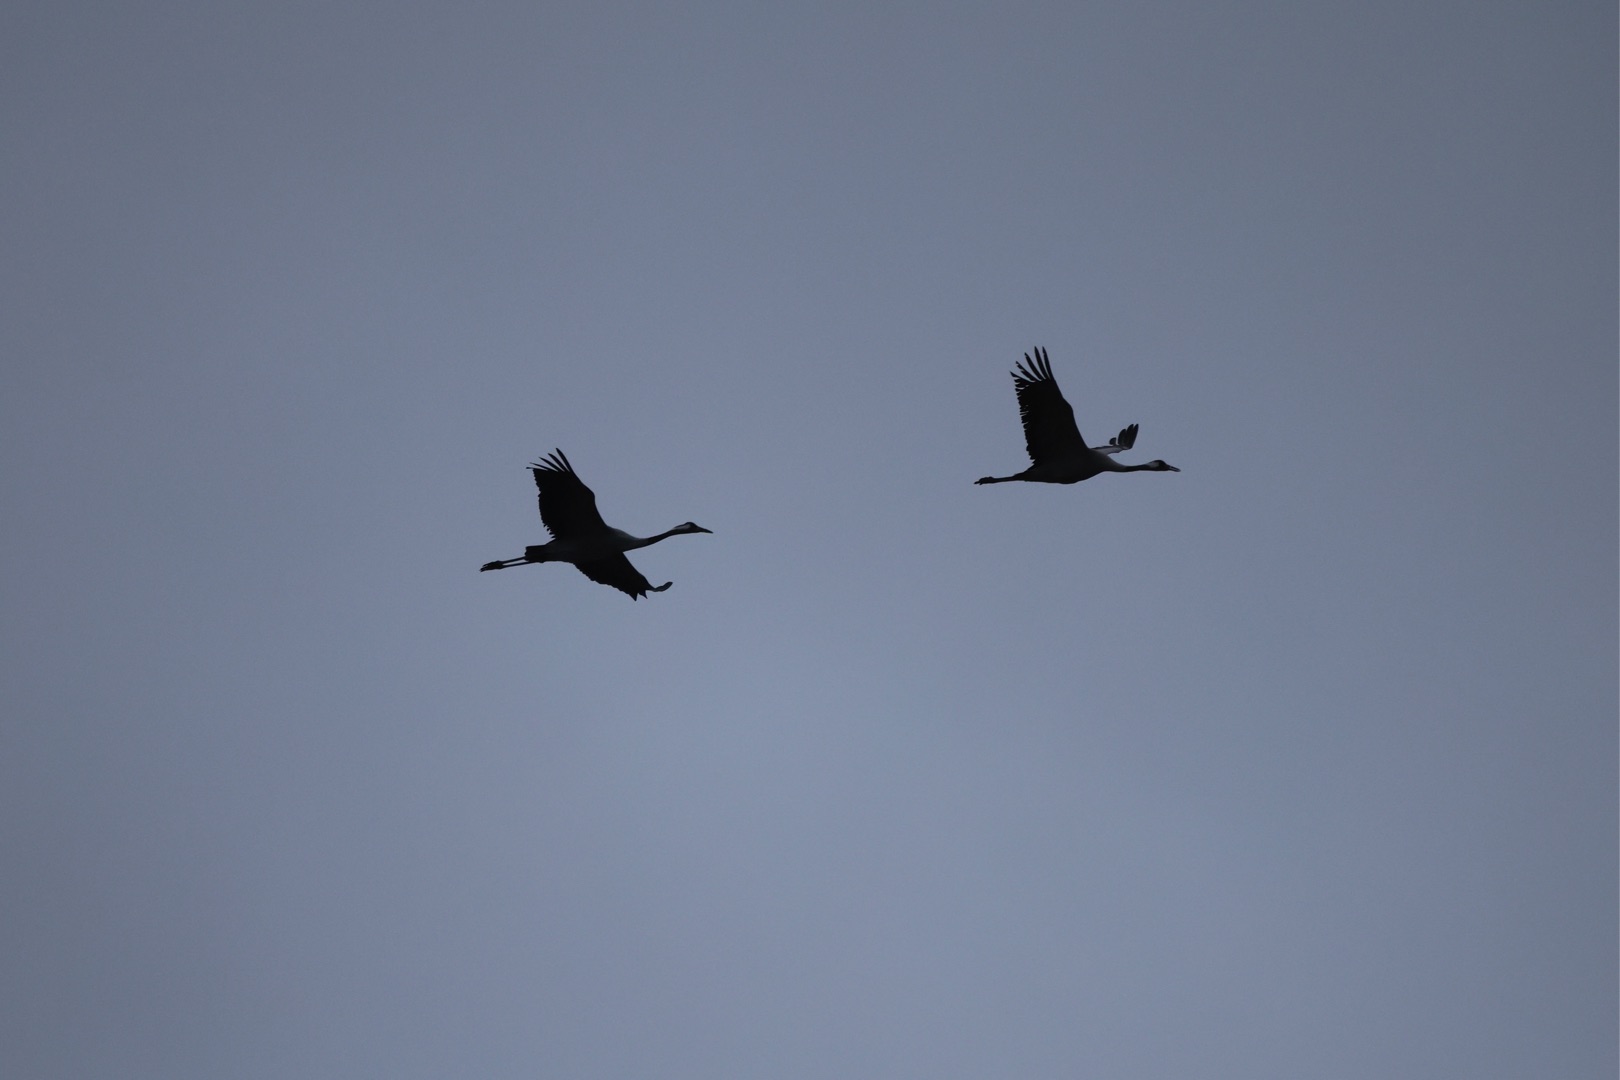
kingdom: Animalia
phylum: Chordata
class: Aves
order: Gruiformes
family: Gruidae
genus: Grus
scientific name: Grus grus
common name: Trane
